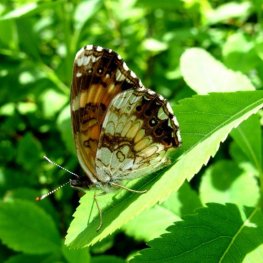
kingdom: Animalia
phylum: Arthropoda
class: Insecta
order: Lepidoptera
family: Nymphalidae
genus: Chlosyne
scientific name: Chlosyne nycteis
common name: Silvery Checkerspot
